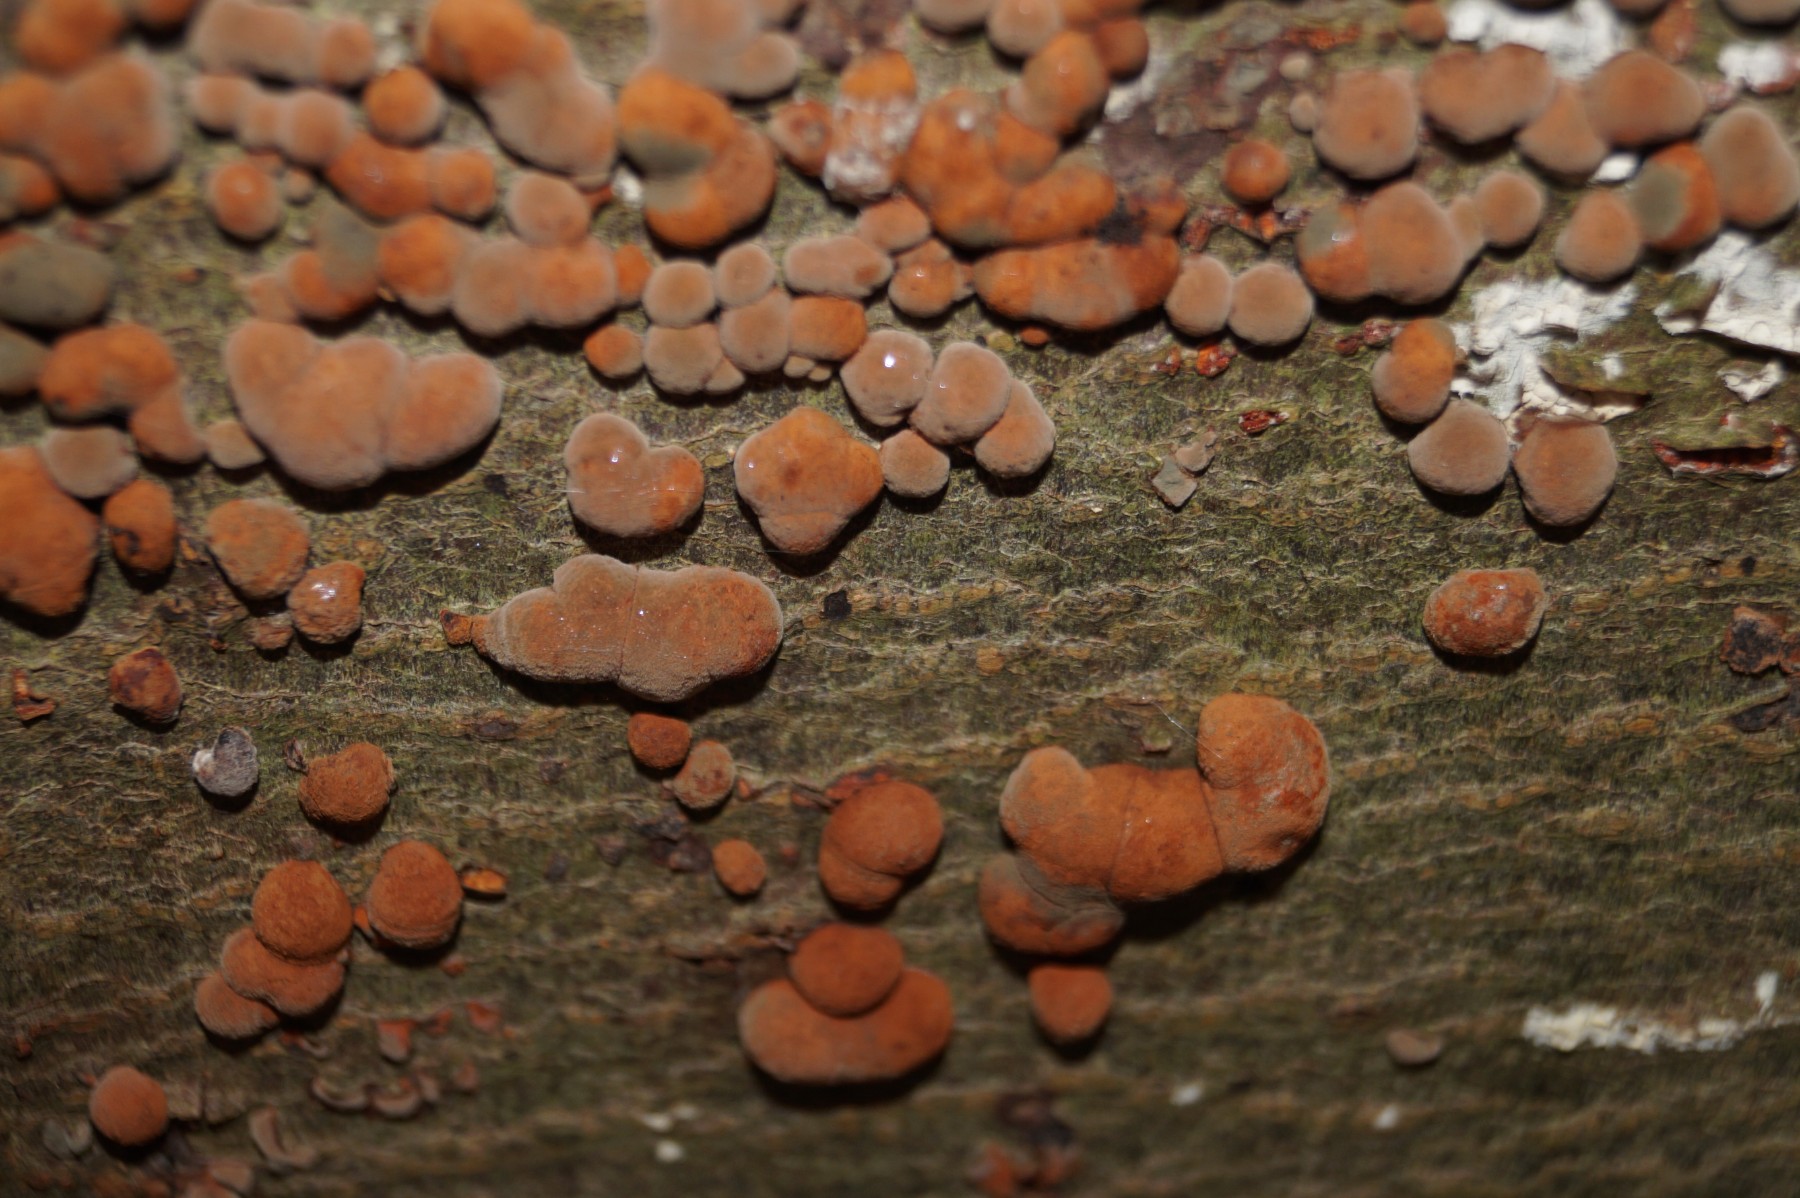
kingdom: Fungi
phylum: Ascomycota
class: Sordariomycetes
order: Xylariales
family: Hypoxylaceae
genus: Hypoxylon
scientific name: Hypoxylon fragiforme
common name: kuljordbær
